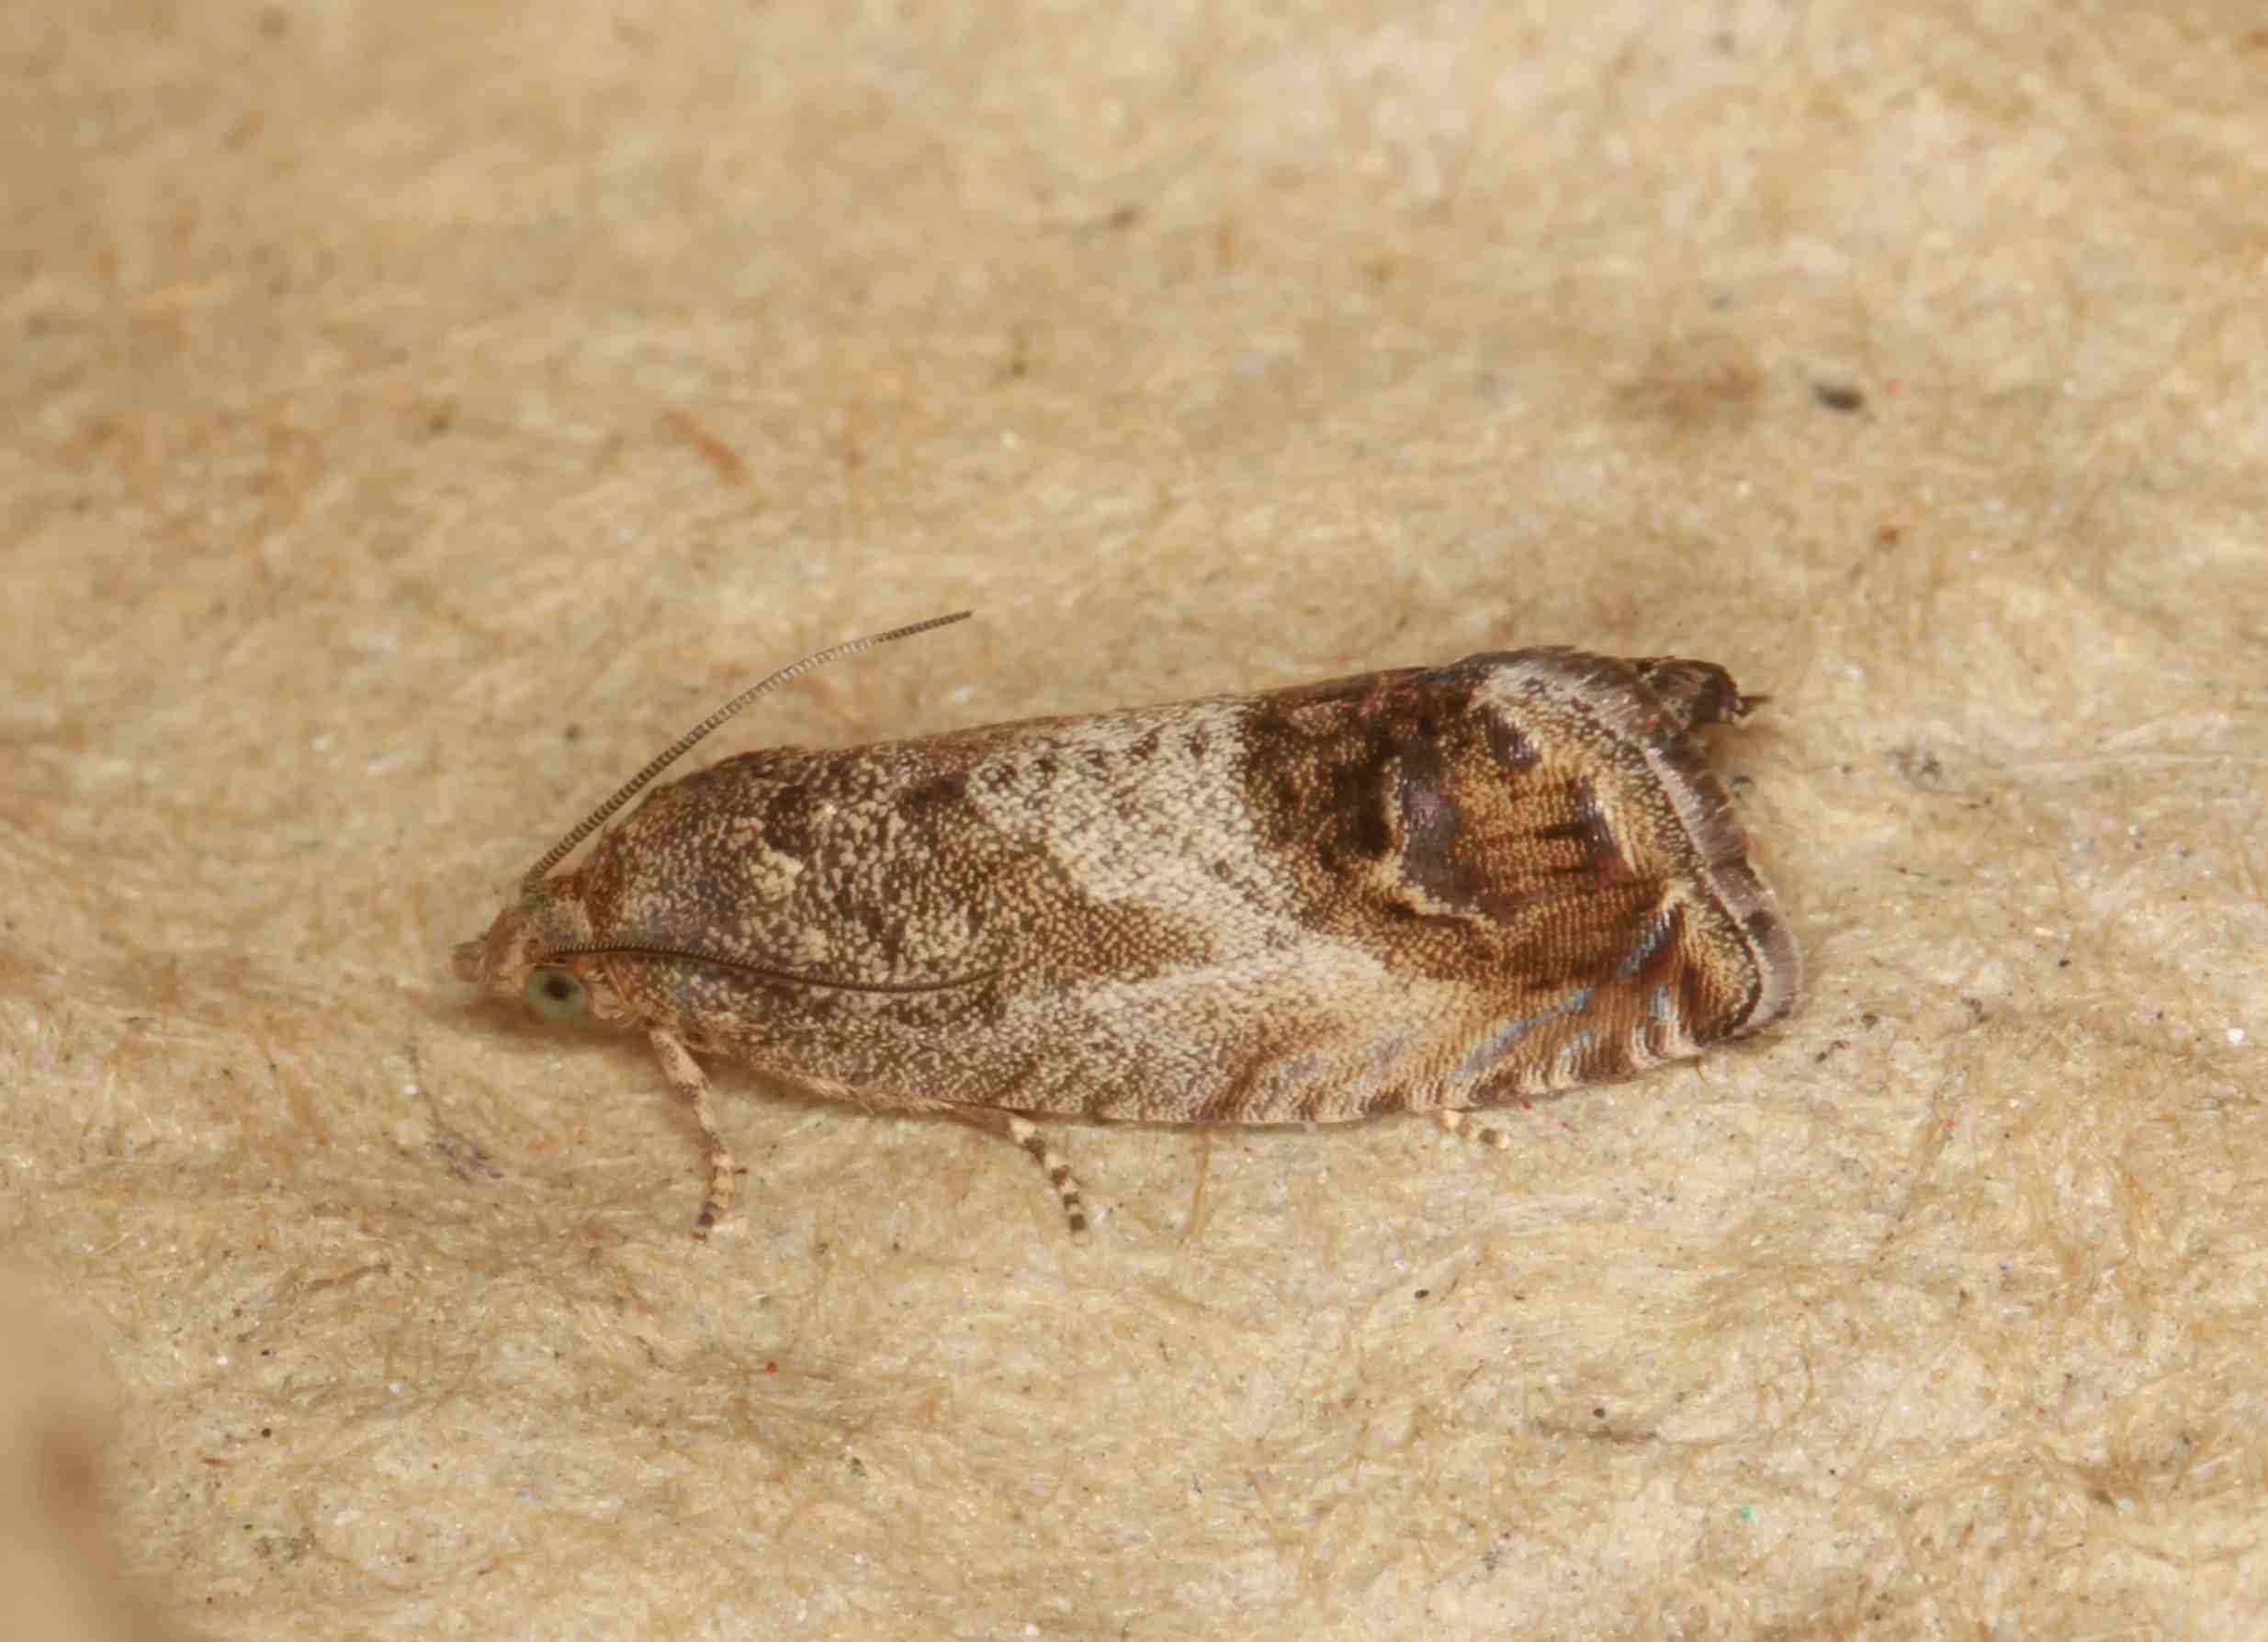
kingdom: Animalia
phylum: Arthropoda
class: Insecta
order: Lepidoptera
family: Tortricidae
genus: Cydia
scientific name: Cydia splendana
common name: Agernvikler
